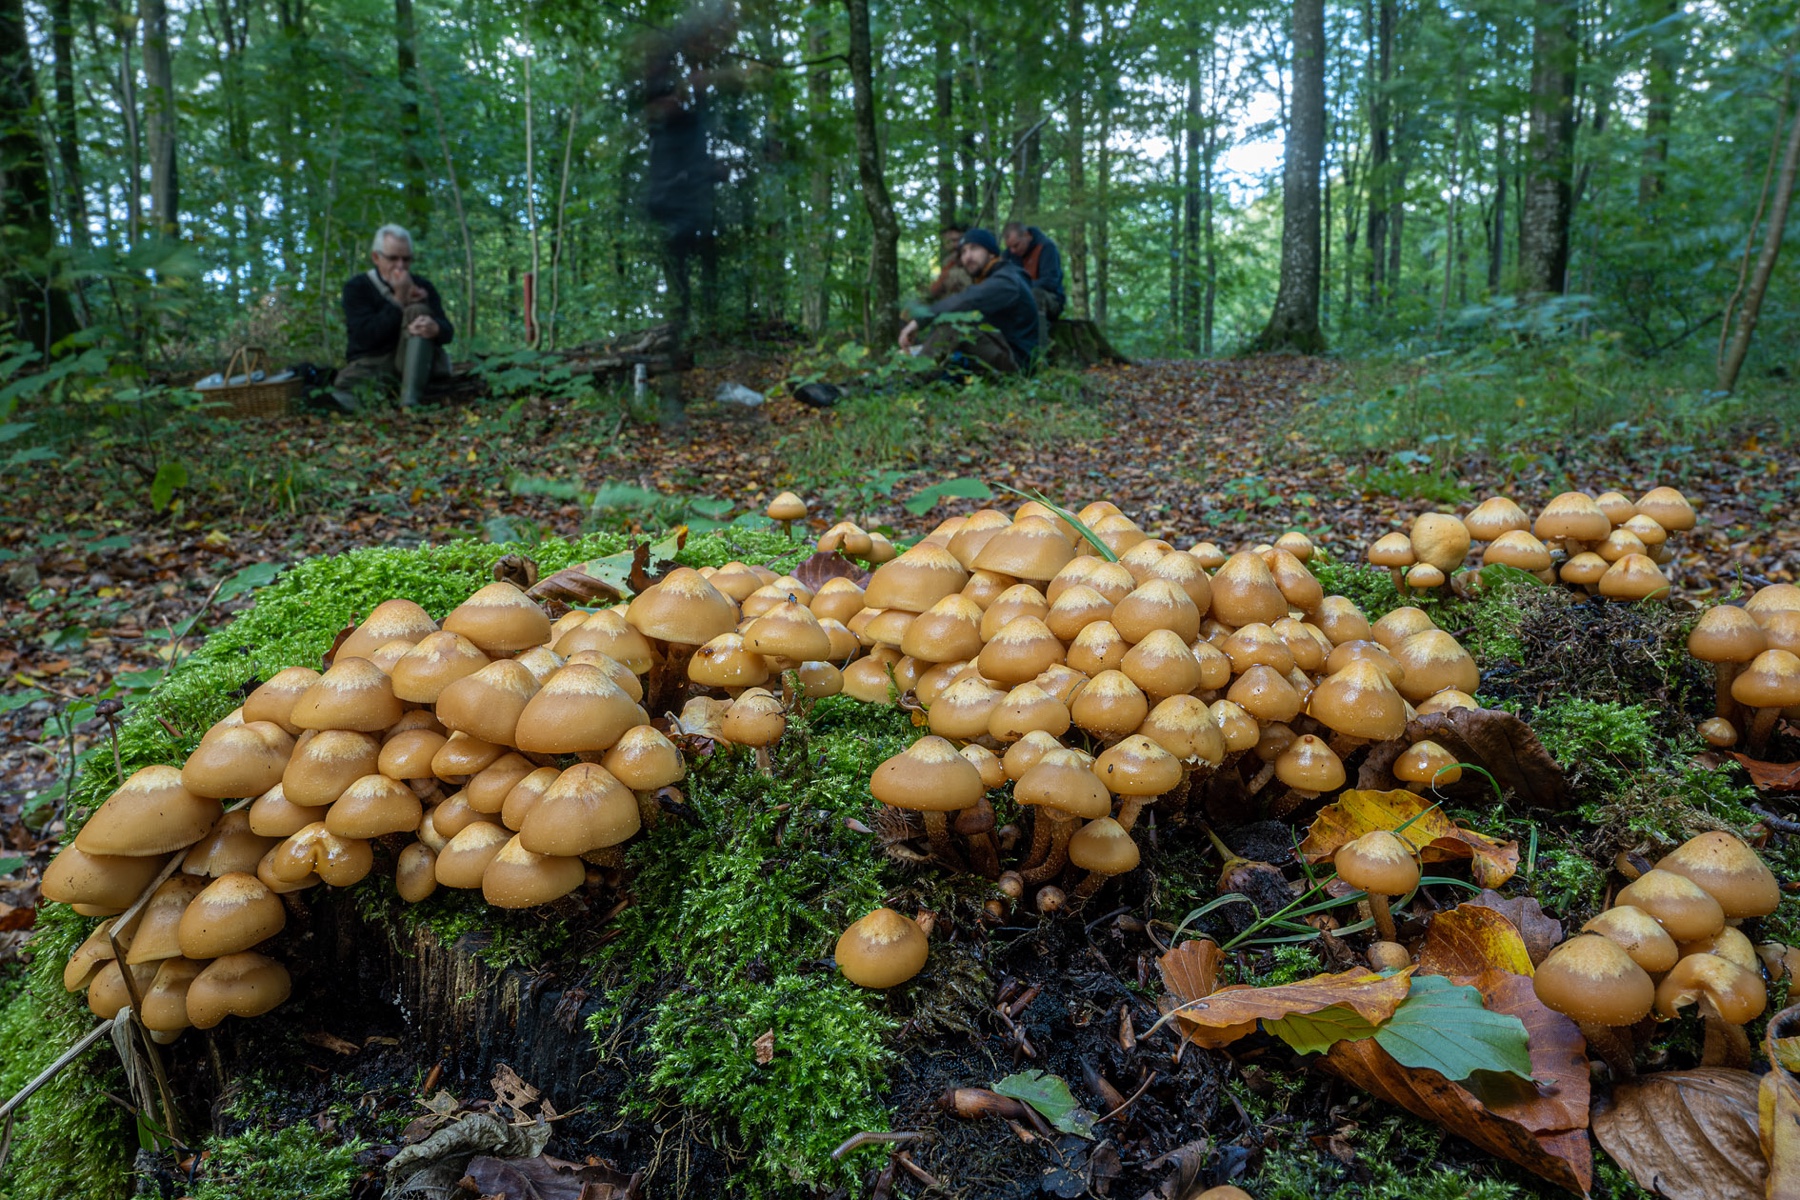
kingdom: Fungi
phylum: Basidiomycota
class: Agaricomycetes
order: Agaricales
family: Strophariaceae
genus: Kuehneromyces
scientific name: Kuehneromyces mutabilis
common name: foranderlig skælhat
